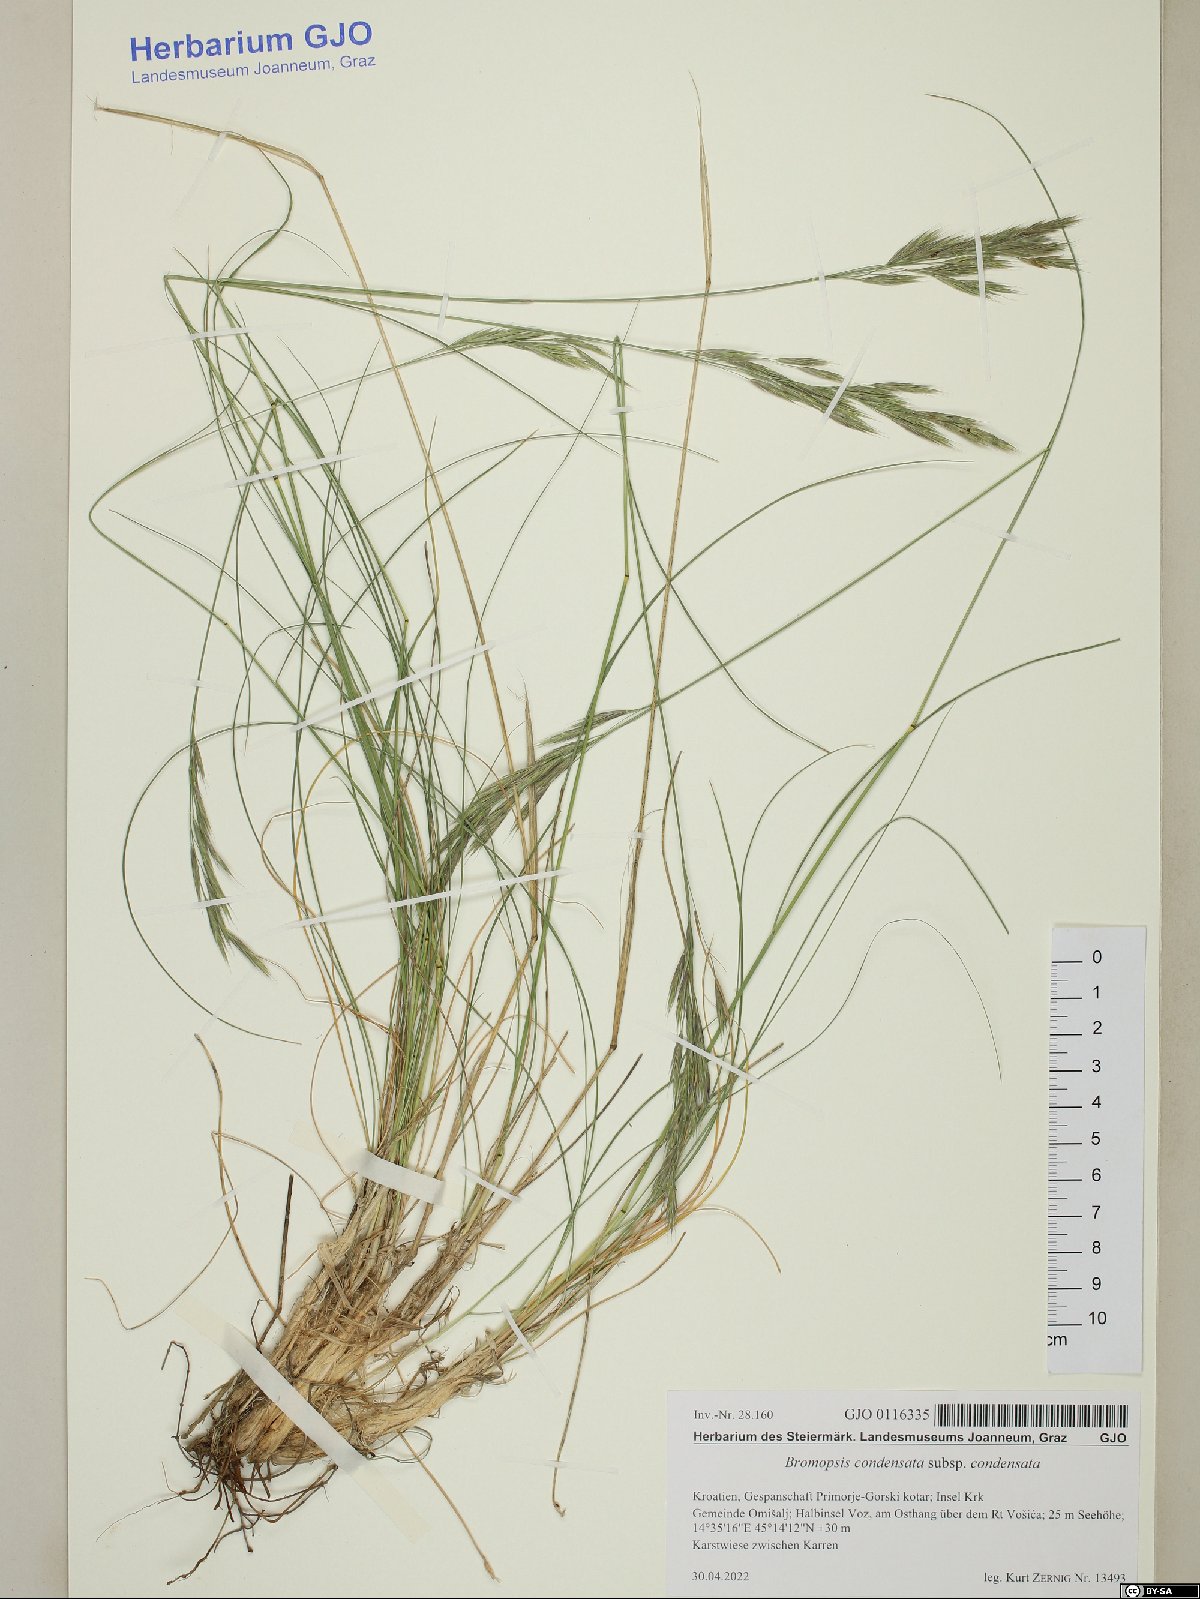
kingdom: Plantae
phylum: Tracheophyta
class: Liliopsida
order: Poales
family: Poaceae
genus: Bromus
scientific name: Bromus condensatus
